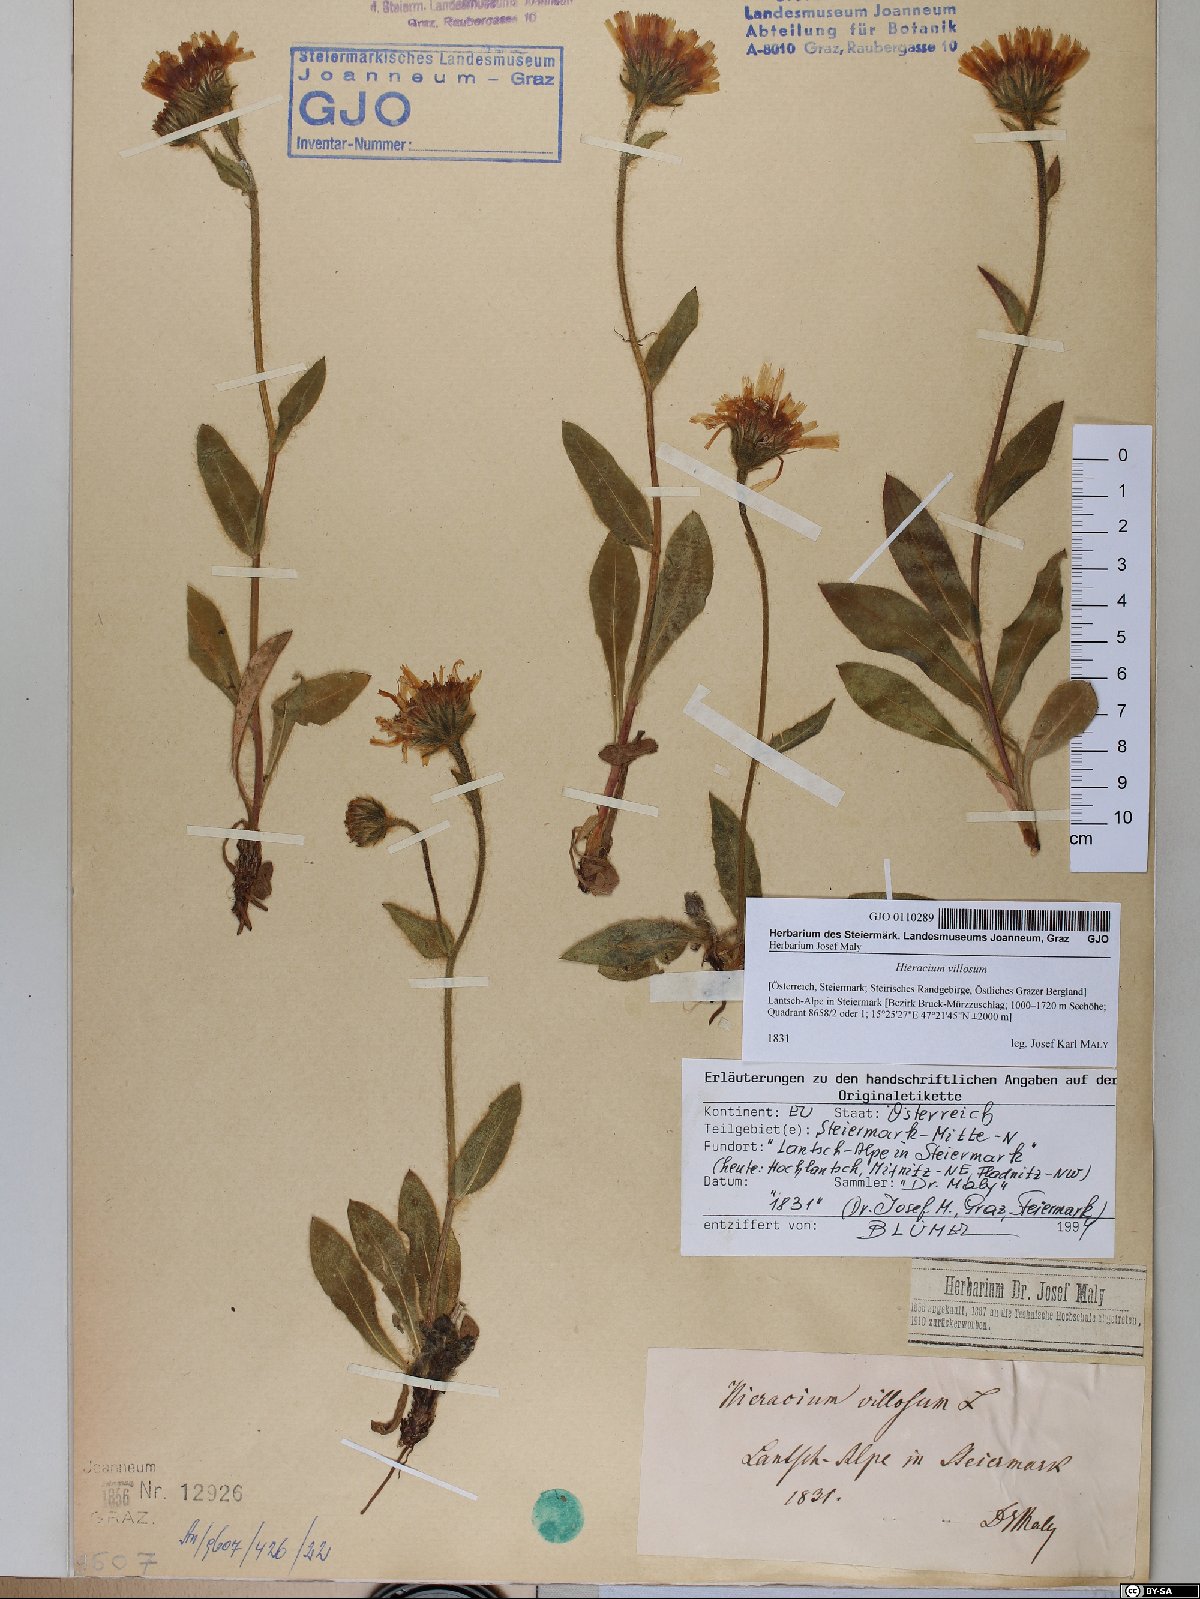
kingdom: Plantae
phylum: Tracheophyta
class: Magnoliopsida
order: Asterales
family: Asteraceae
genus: Hieracium
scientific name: Hieracium villosum
